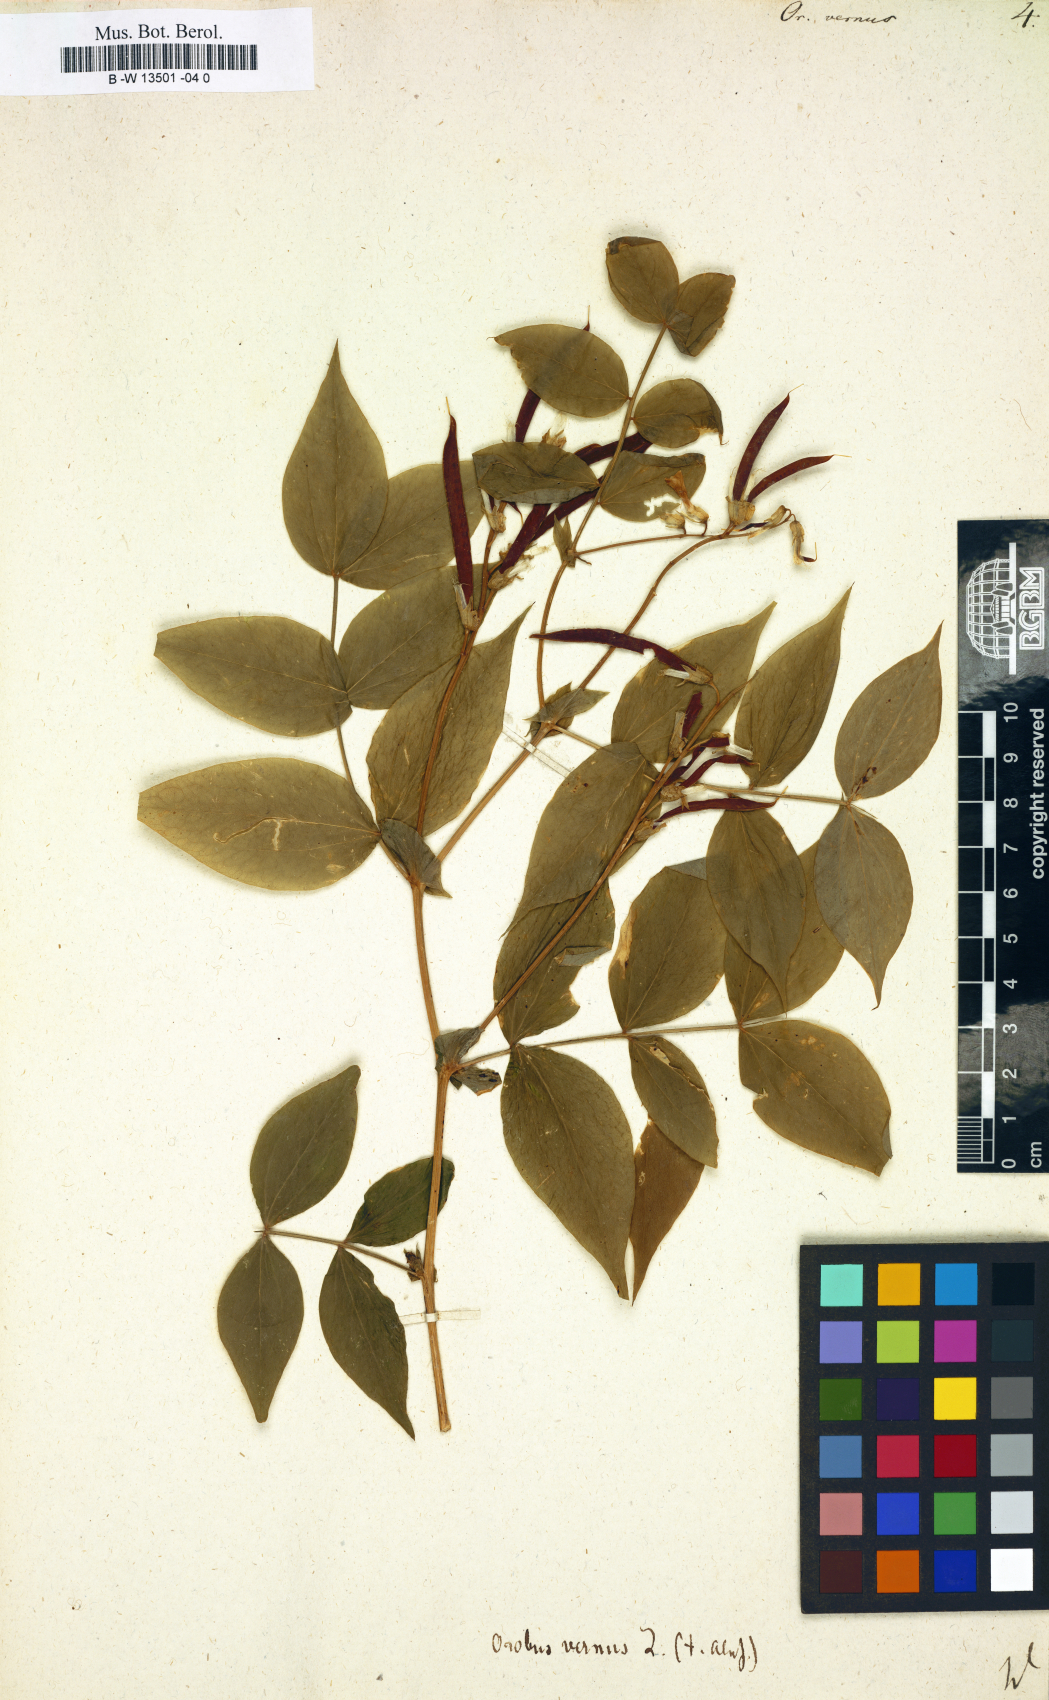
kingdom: Plantae
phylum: Tracheophyta
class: Magnoliopsida
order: Fabales
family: Fabaceae
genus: Lathyrus
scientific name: Lathyrus vernus
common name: Spring pea
